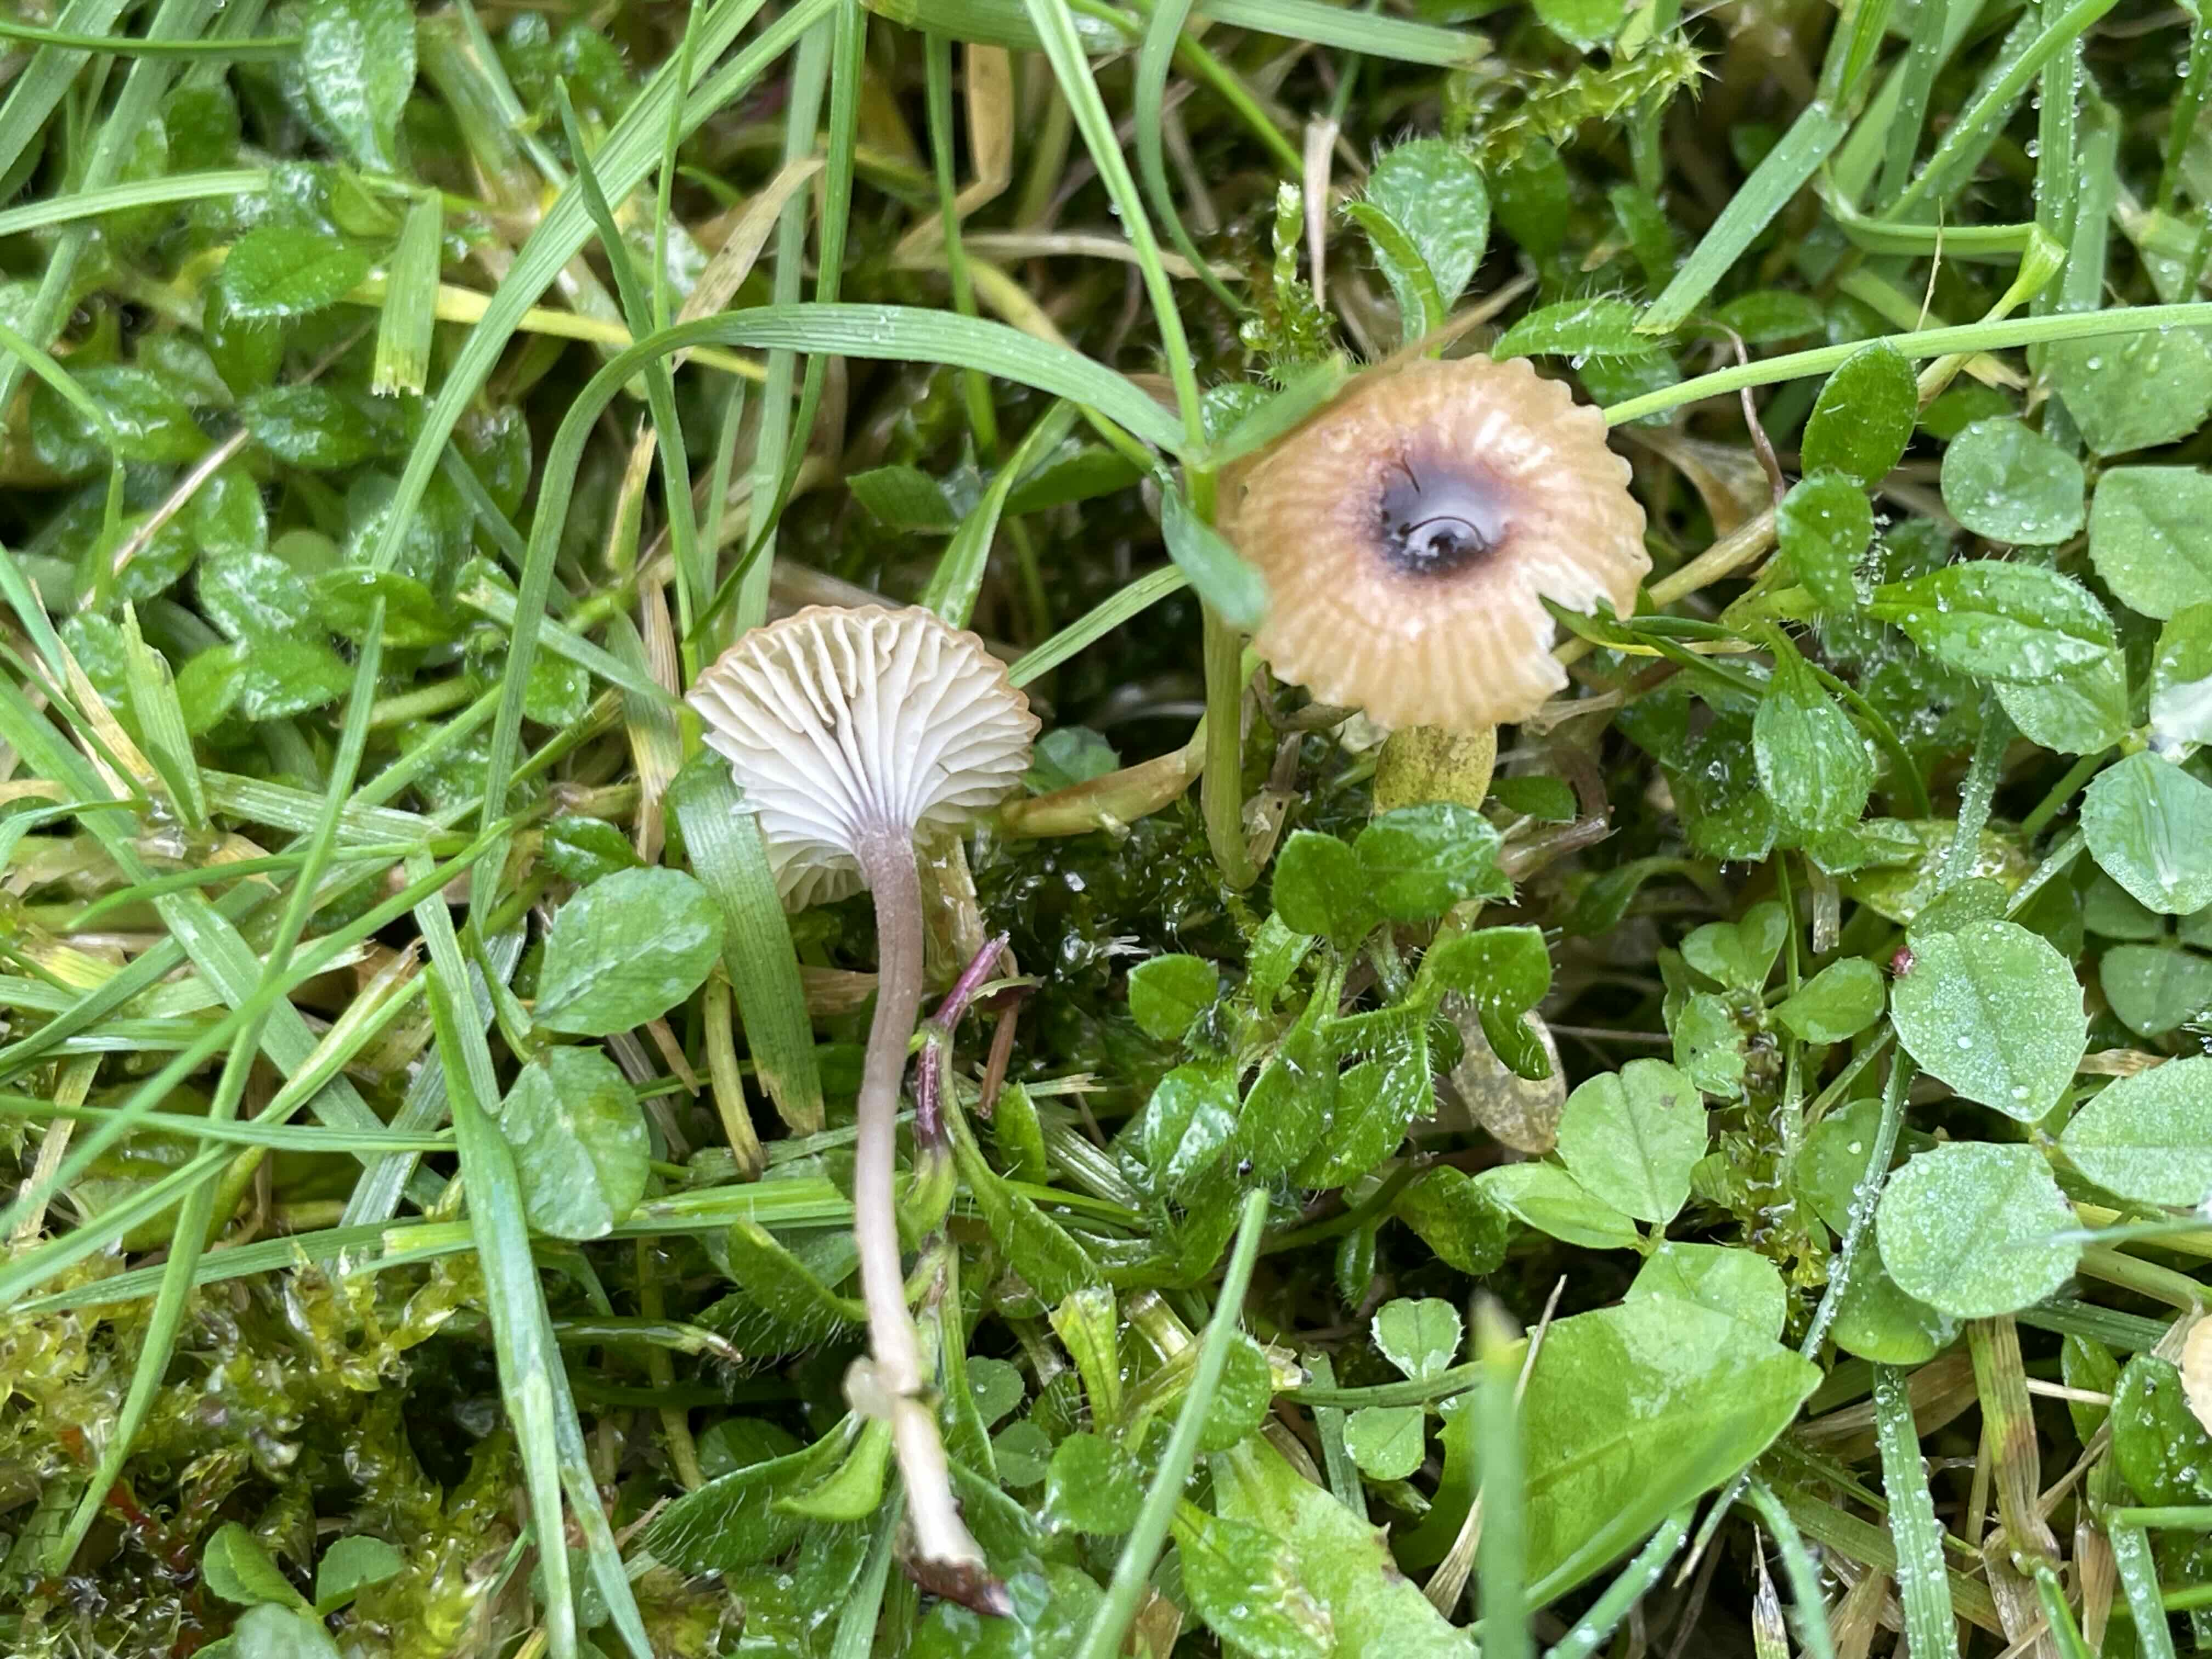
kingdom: Fungi
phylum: Basidiomycota
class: Agaricomycetes
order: Hymenochaetales
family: Rickenellaceae
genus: Rickenella
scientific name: Rickenella swartzii
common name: finstokket mosnavlehat
